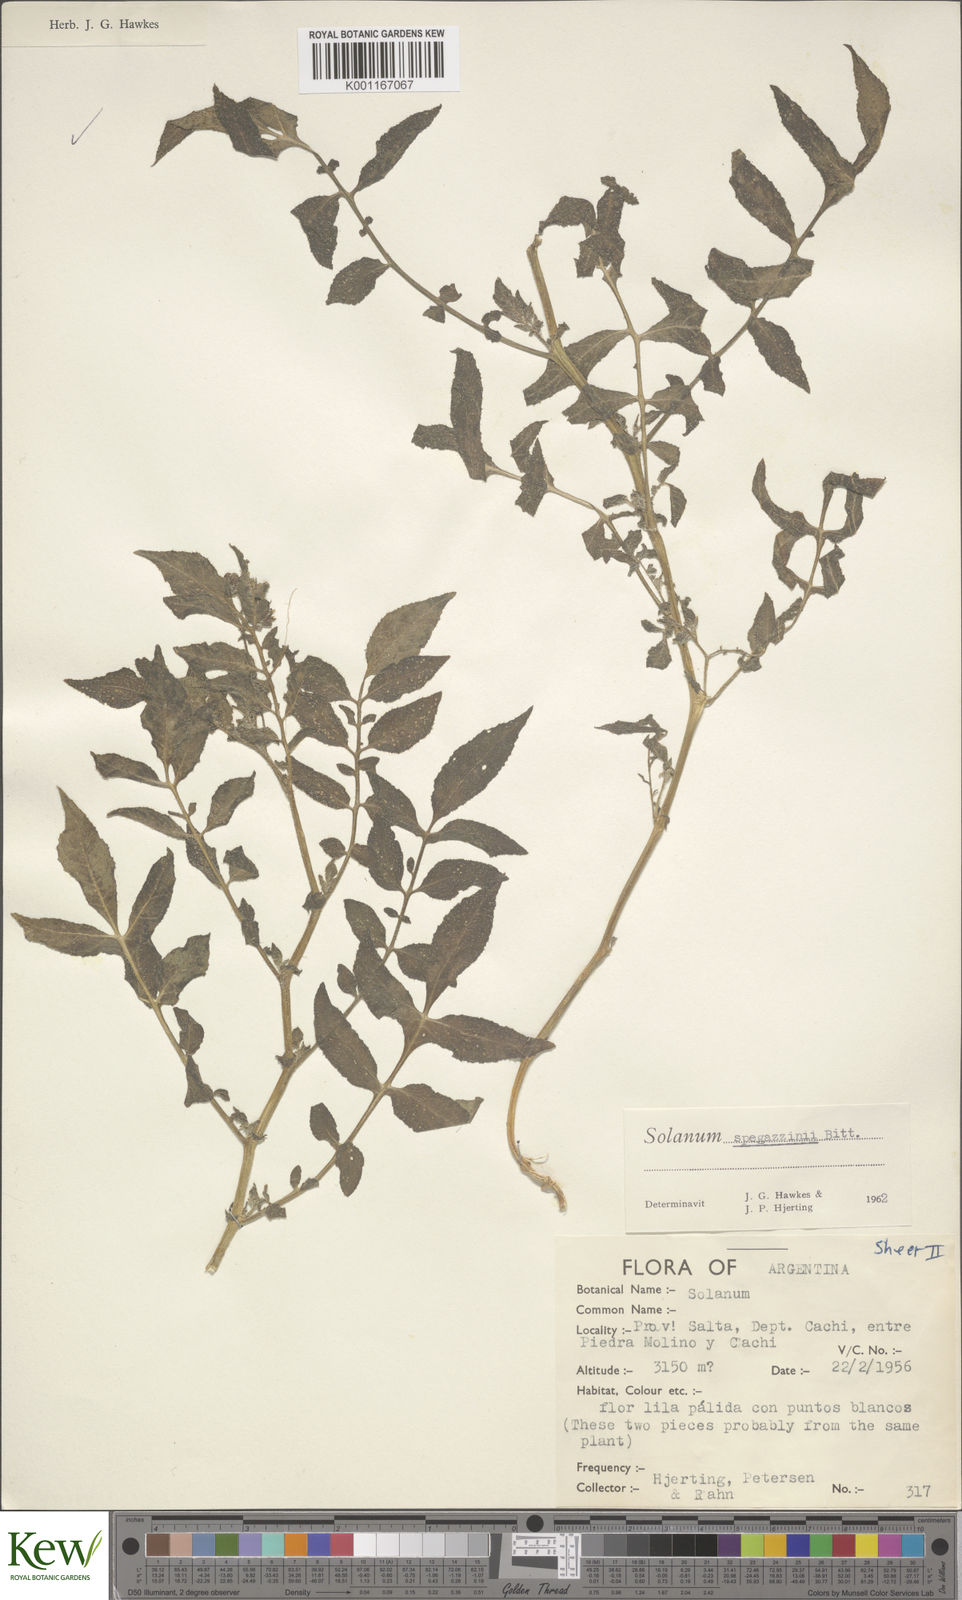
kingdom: Plantae
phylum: Tracheophyta
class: Magnoliopsida
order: Solanales
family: Solanaceae
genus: Solanum
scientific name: Solanum brevicaule
